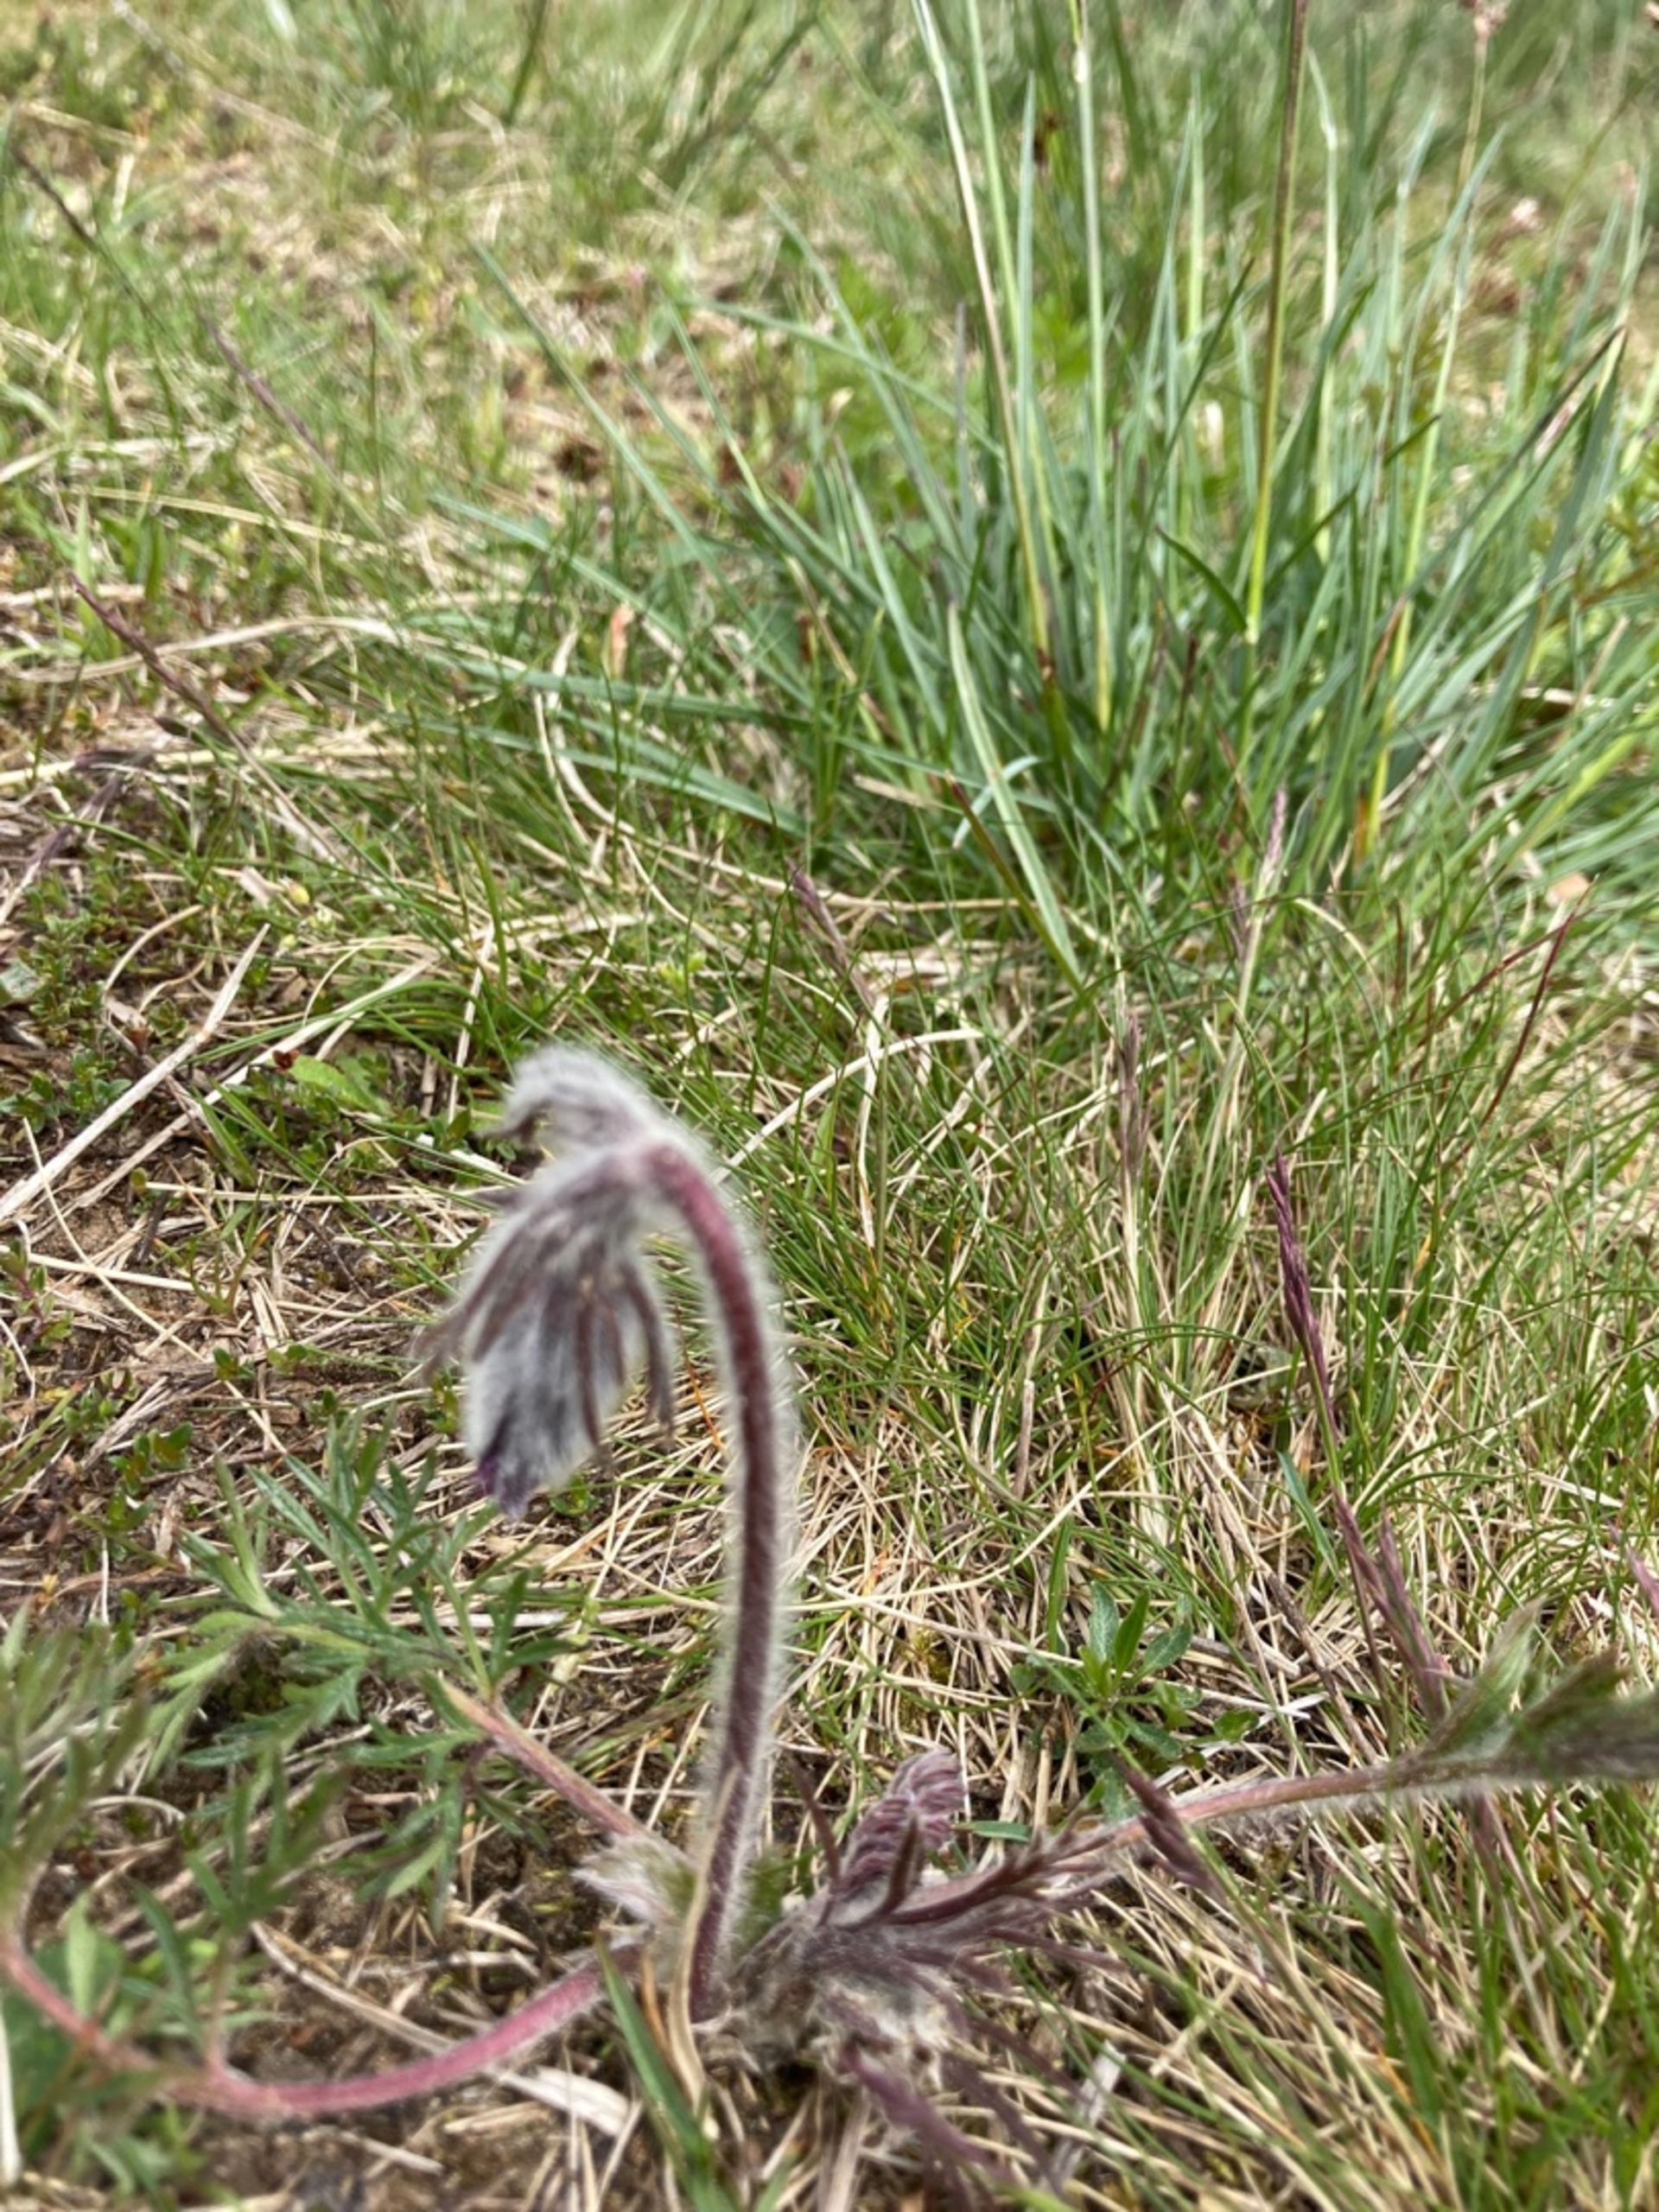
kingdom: Plantae
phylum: Tracheophyta
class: Magnoliopsida
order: Ranunculales
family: Ranunculaceae
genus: Pulsatilla
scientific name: Pulsatilla pratensis
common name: Nikkende kobjælde
